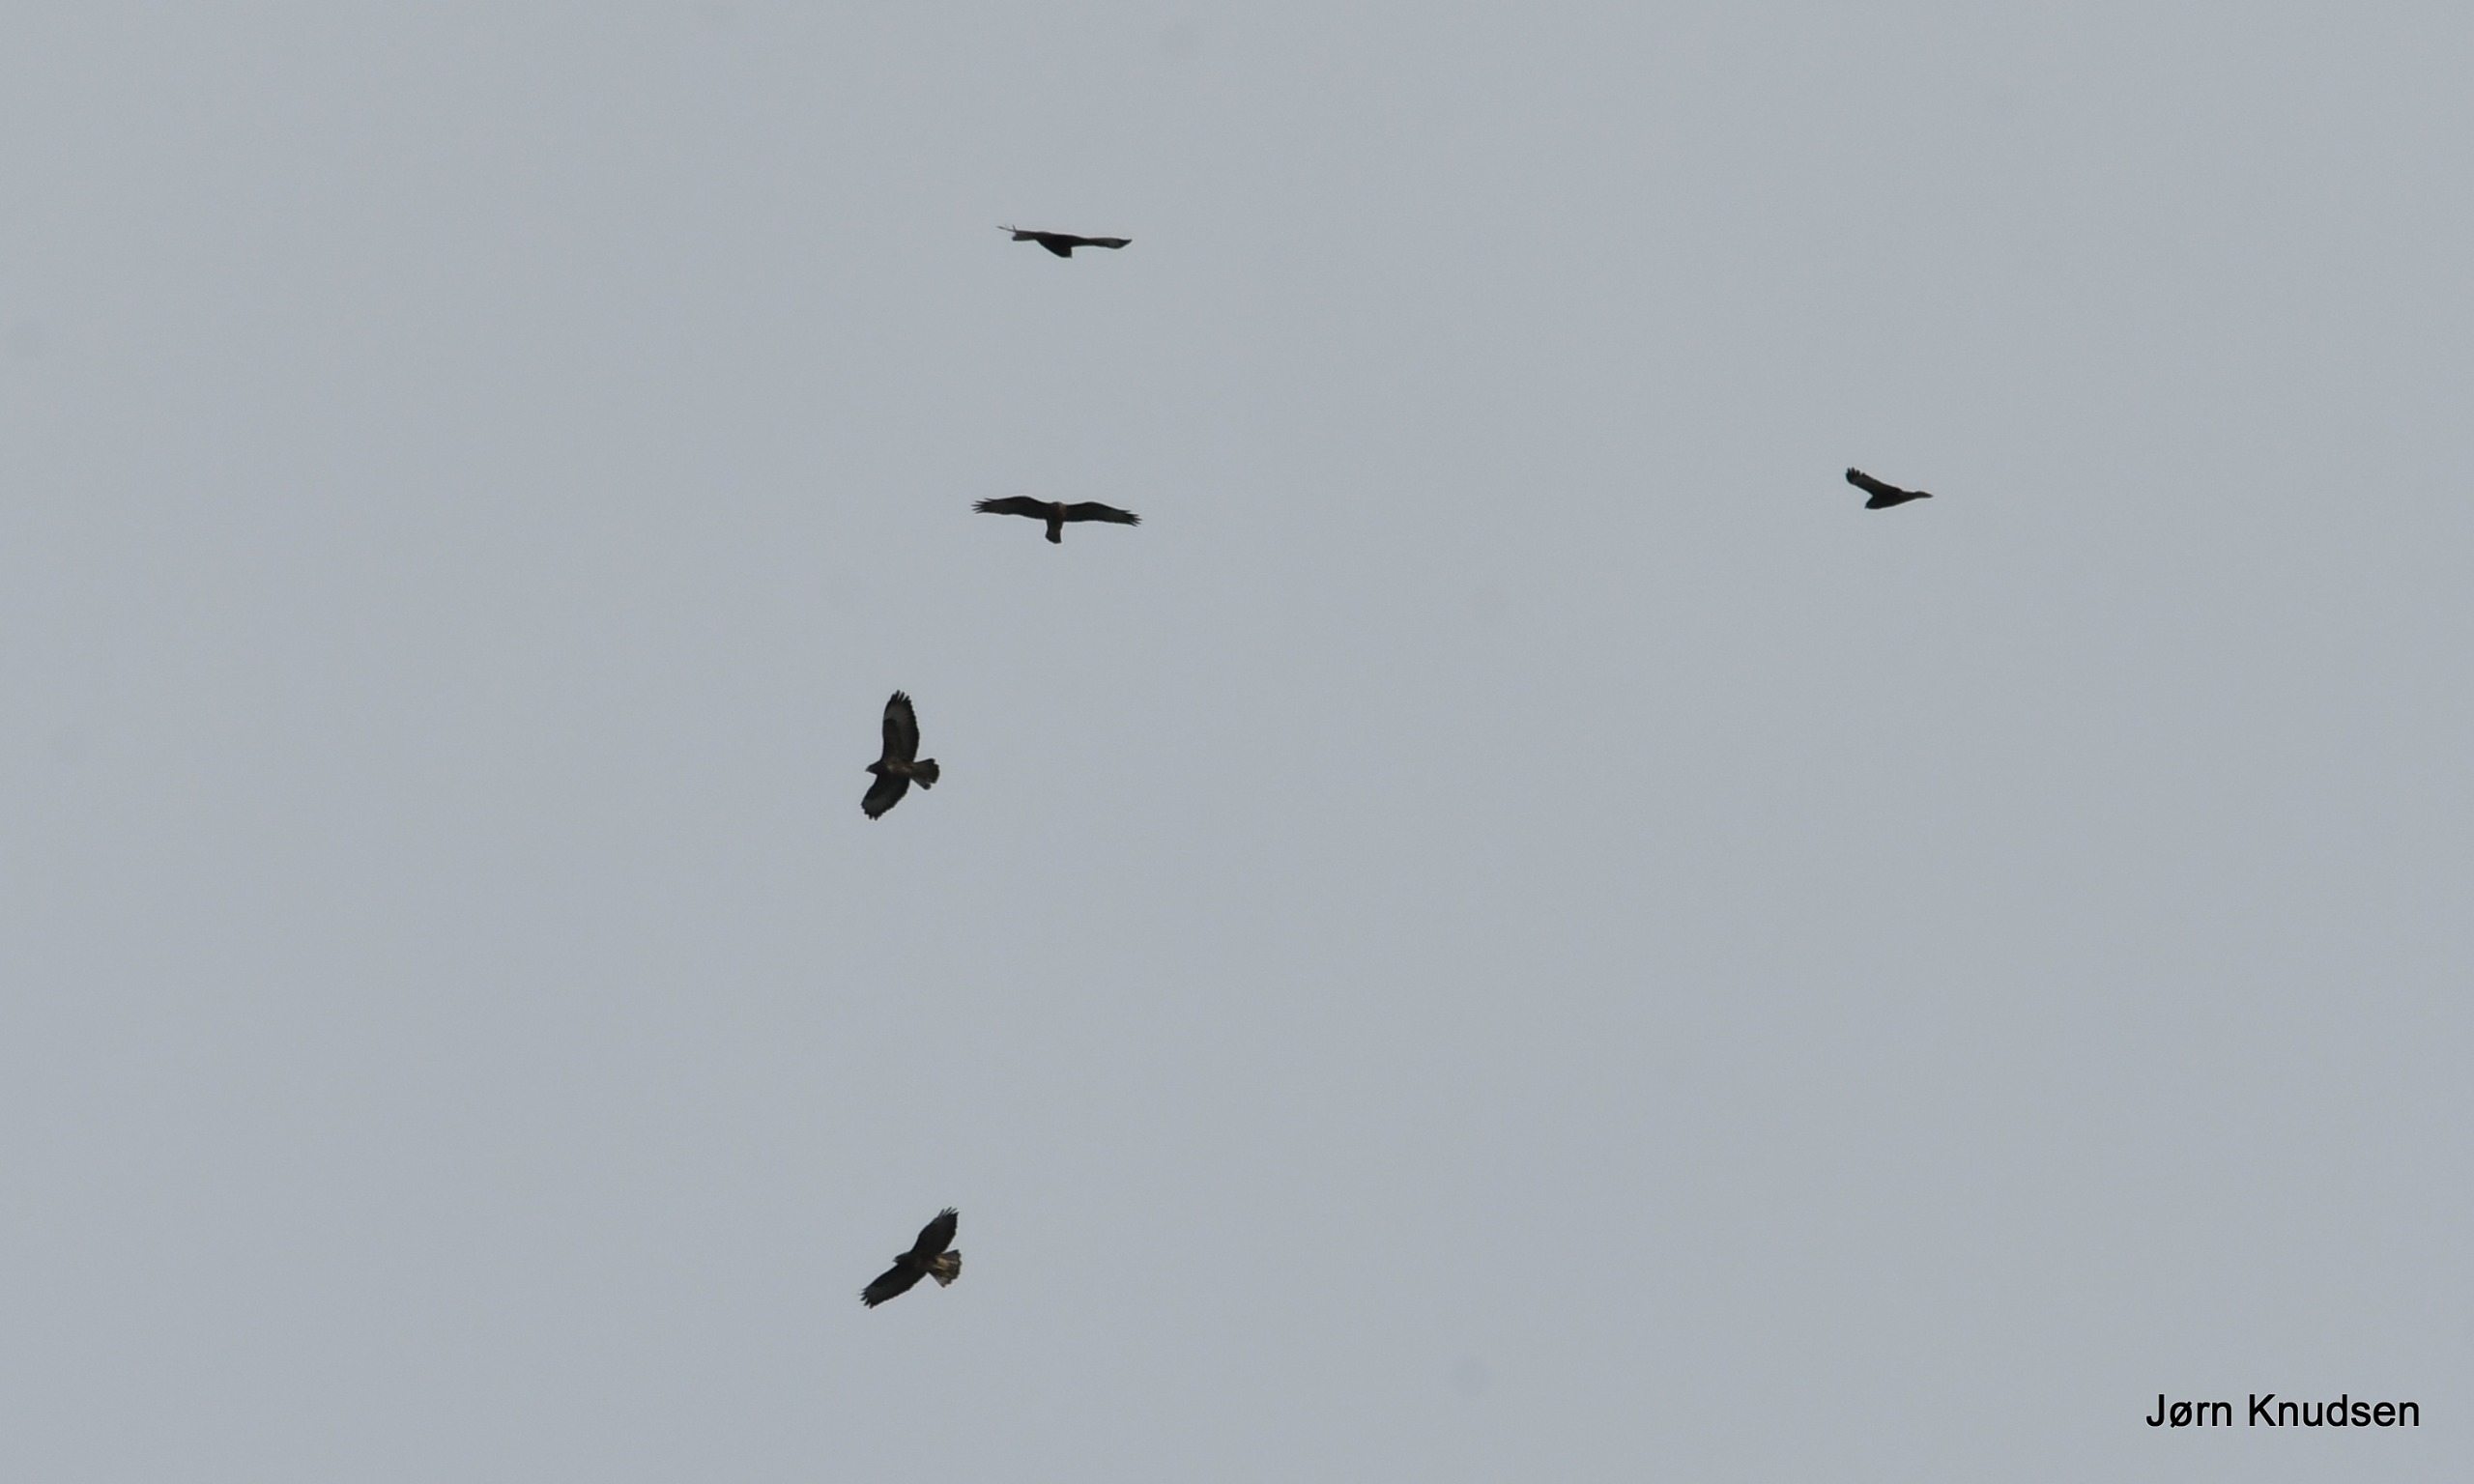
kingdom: Animalia
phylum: Chordata
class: Aves
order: Accipitriformes
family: Accipitridae
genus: Buteo
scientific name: Buteo buteo
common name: Musvåge
